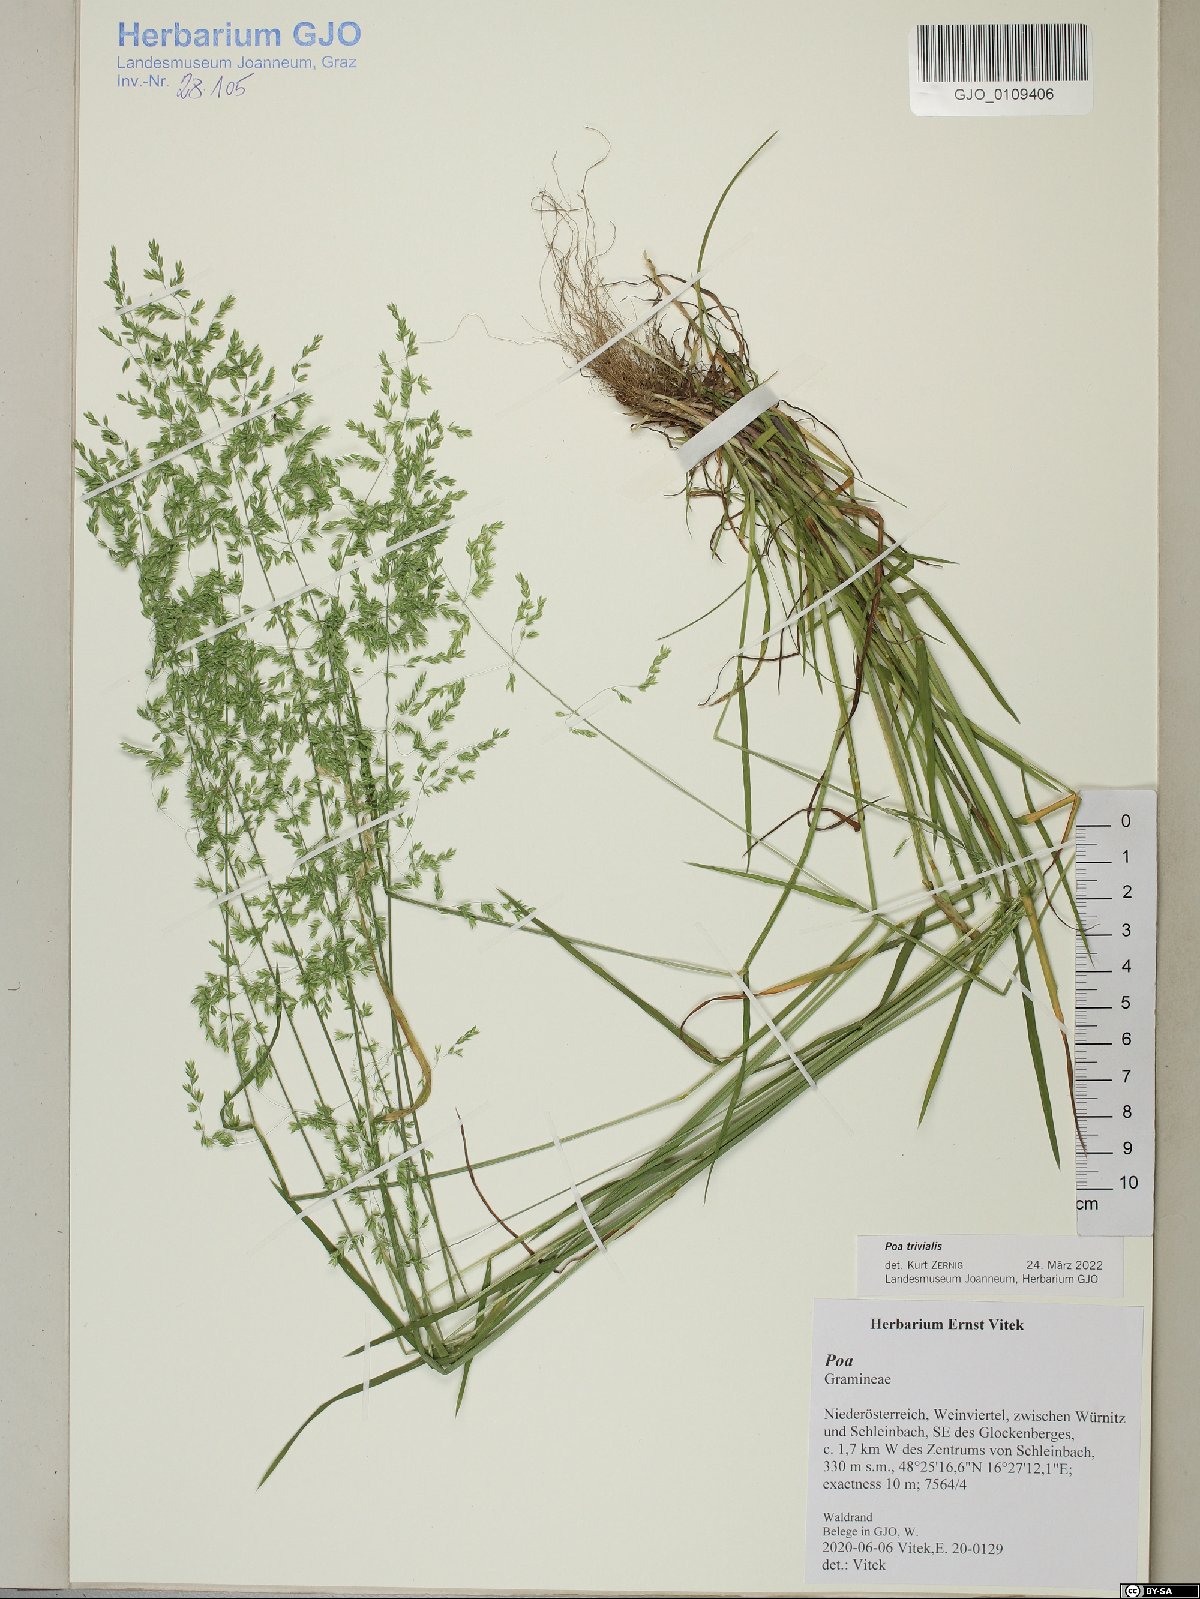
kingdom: Plantae
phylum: Tracheophyta
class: Liliopsida
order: Poales
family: Poaceae
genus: Poa
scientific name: Poa trivialis
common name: Rough bluegrass
